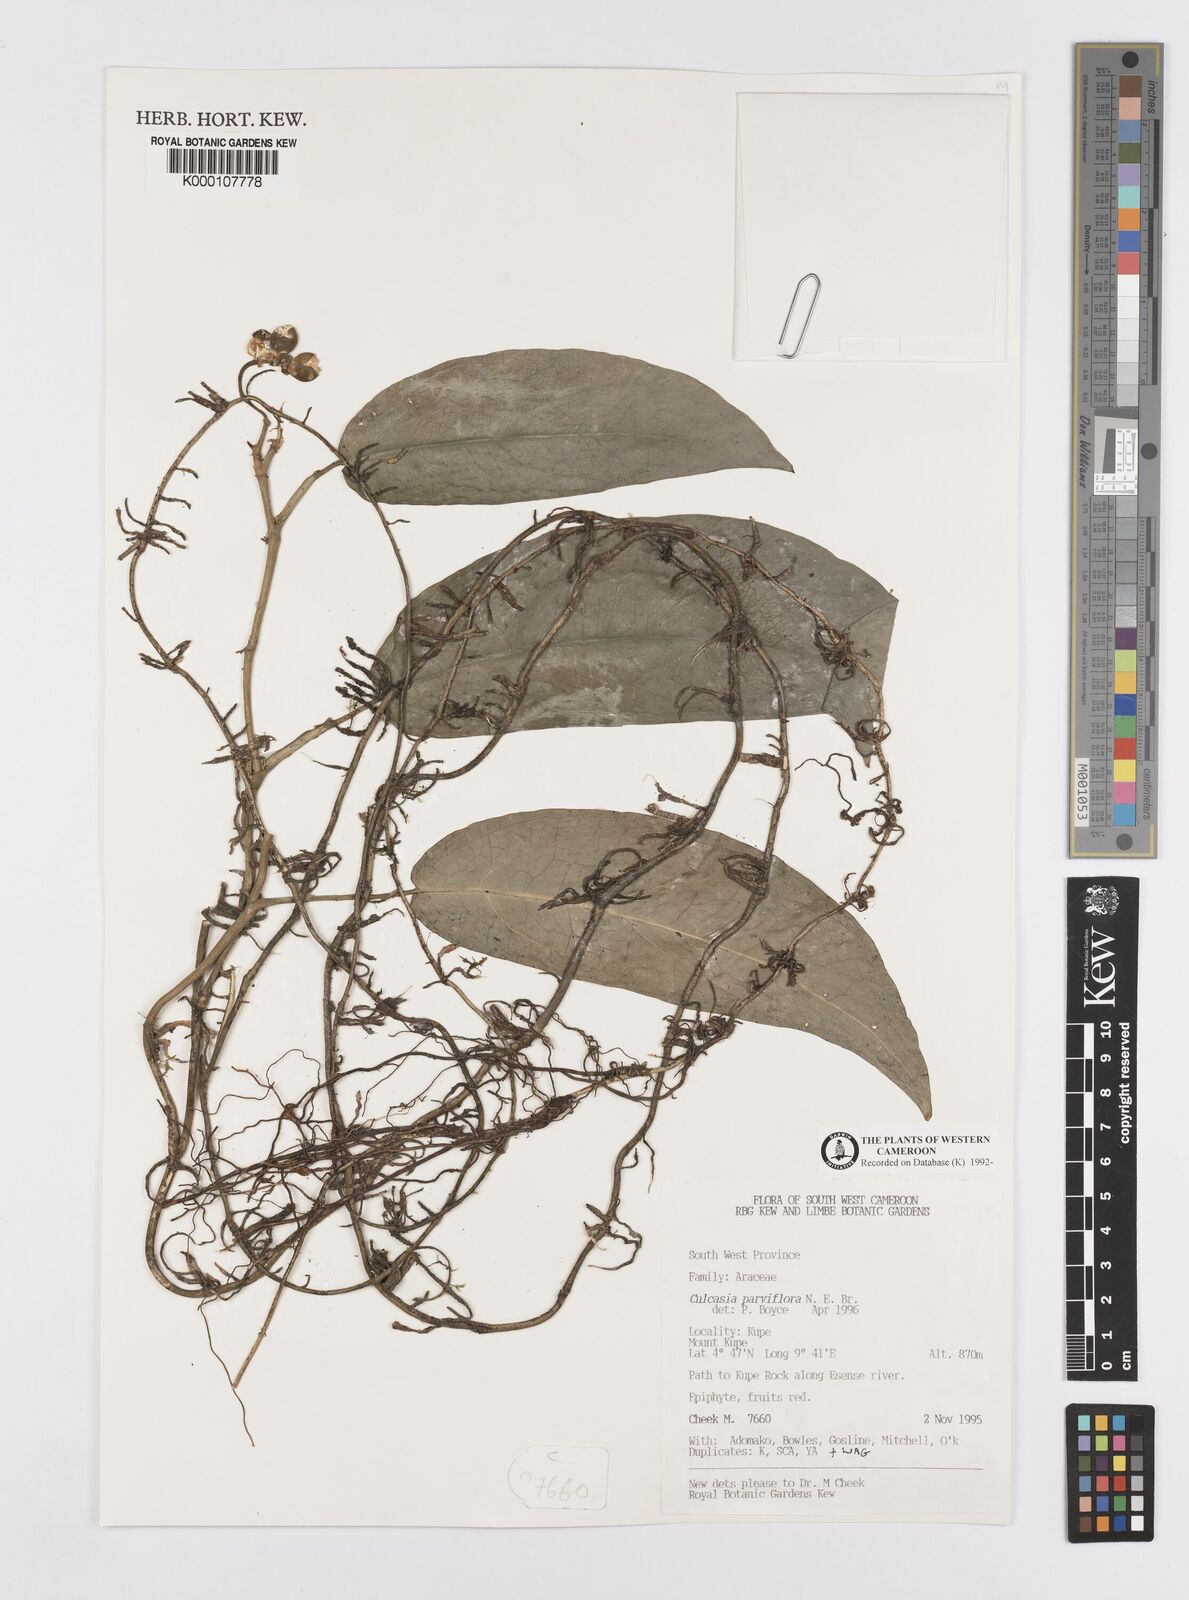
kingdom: Plantae
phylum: Tracheophyta
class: Liliopsida
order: Alismatales
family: Araceae
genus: Culcasia
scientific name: Culcasia parviflora
